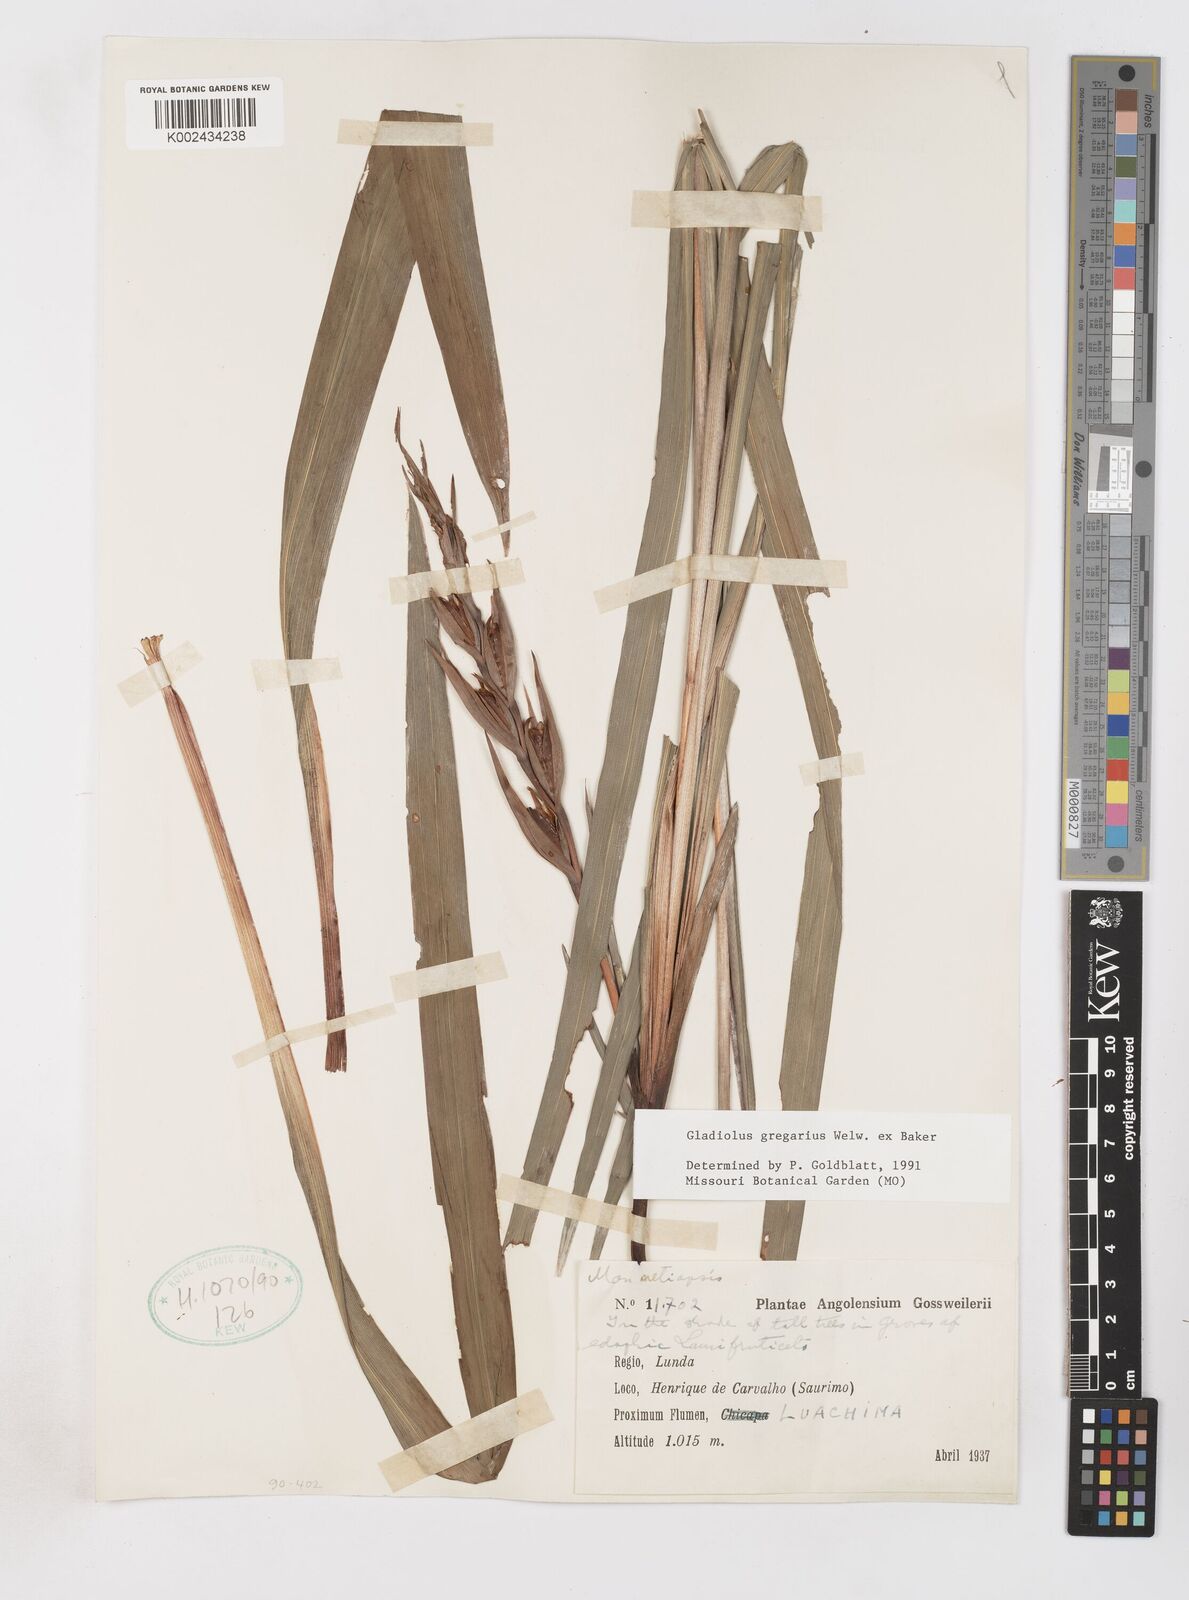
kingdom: Plantae
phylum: Tracheophyta
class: Liliopsida
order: Asparagales
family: Iridaceae
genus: Gladiolus
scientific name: Gladiolus gregarius
